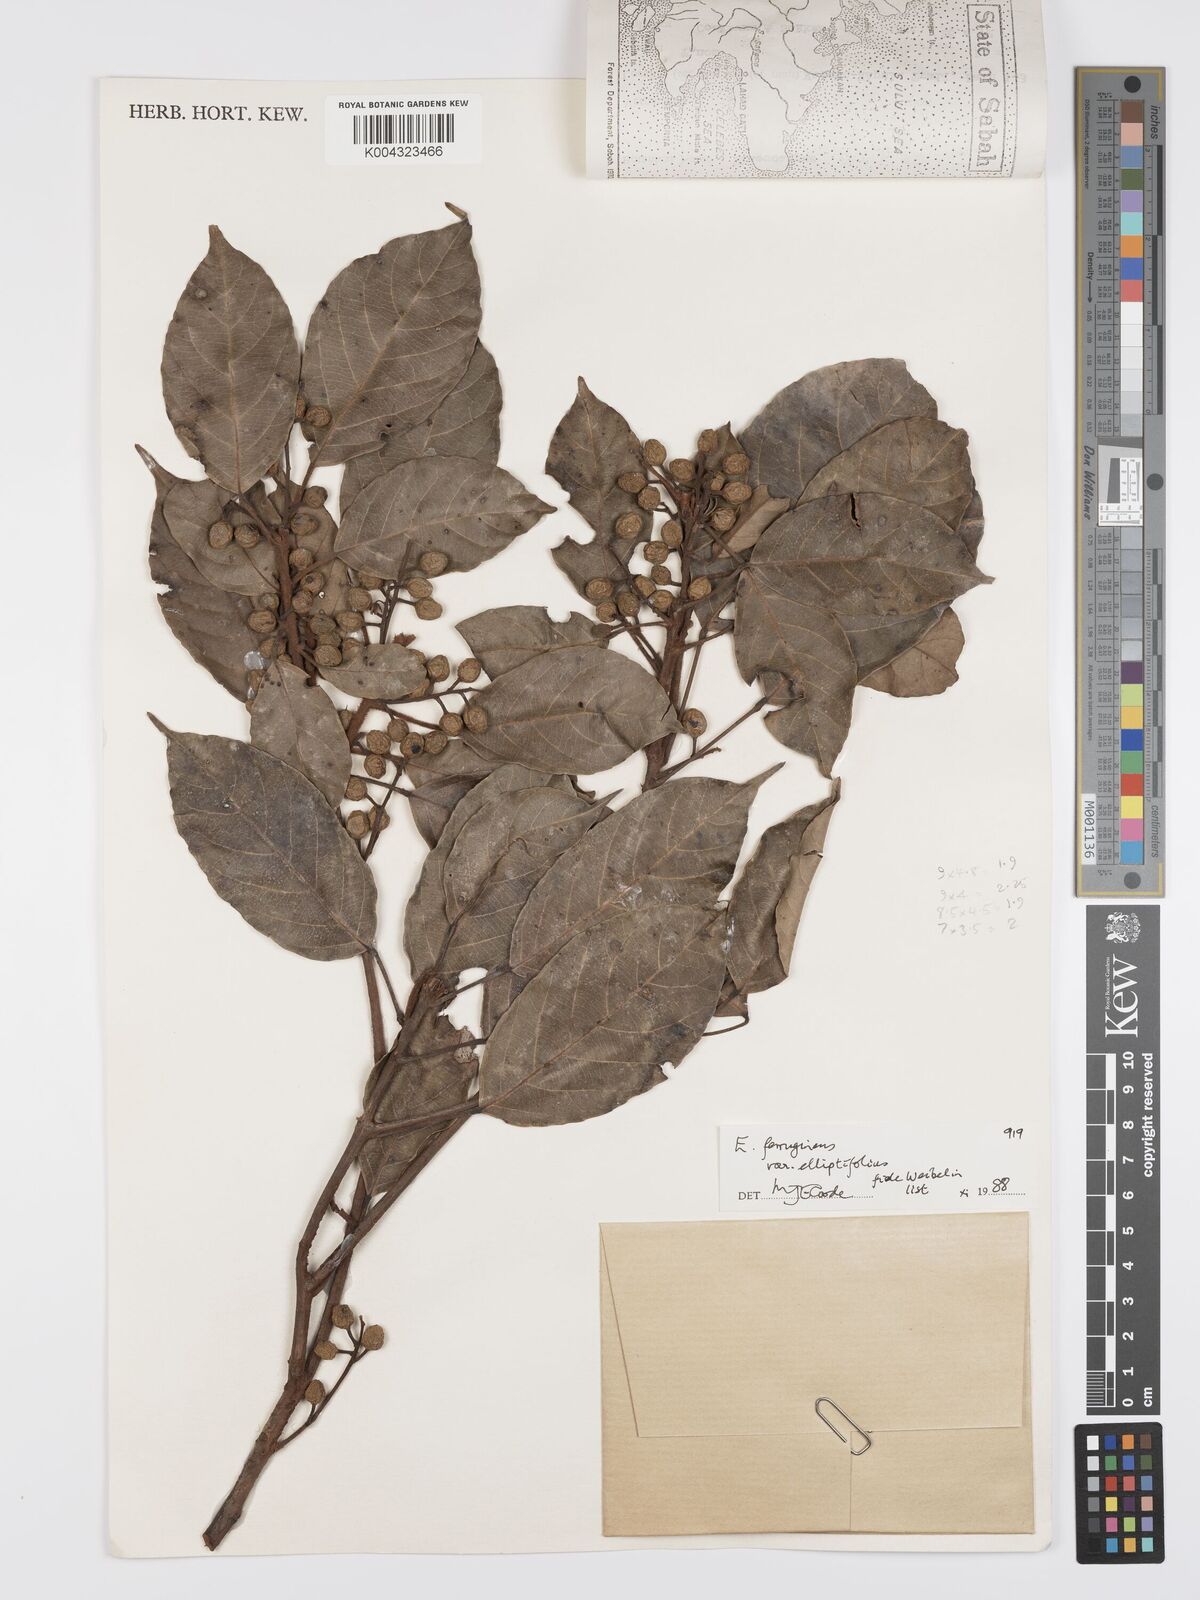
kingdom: Plantae
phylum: Tracheophyta
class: Magnoliopsida
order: Oxalidales
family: Elaeocarpaceae
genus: Elaeocarpus
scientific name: Elaeocarpus ferrugineus
